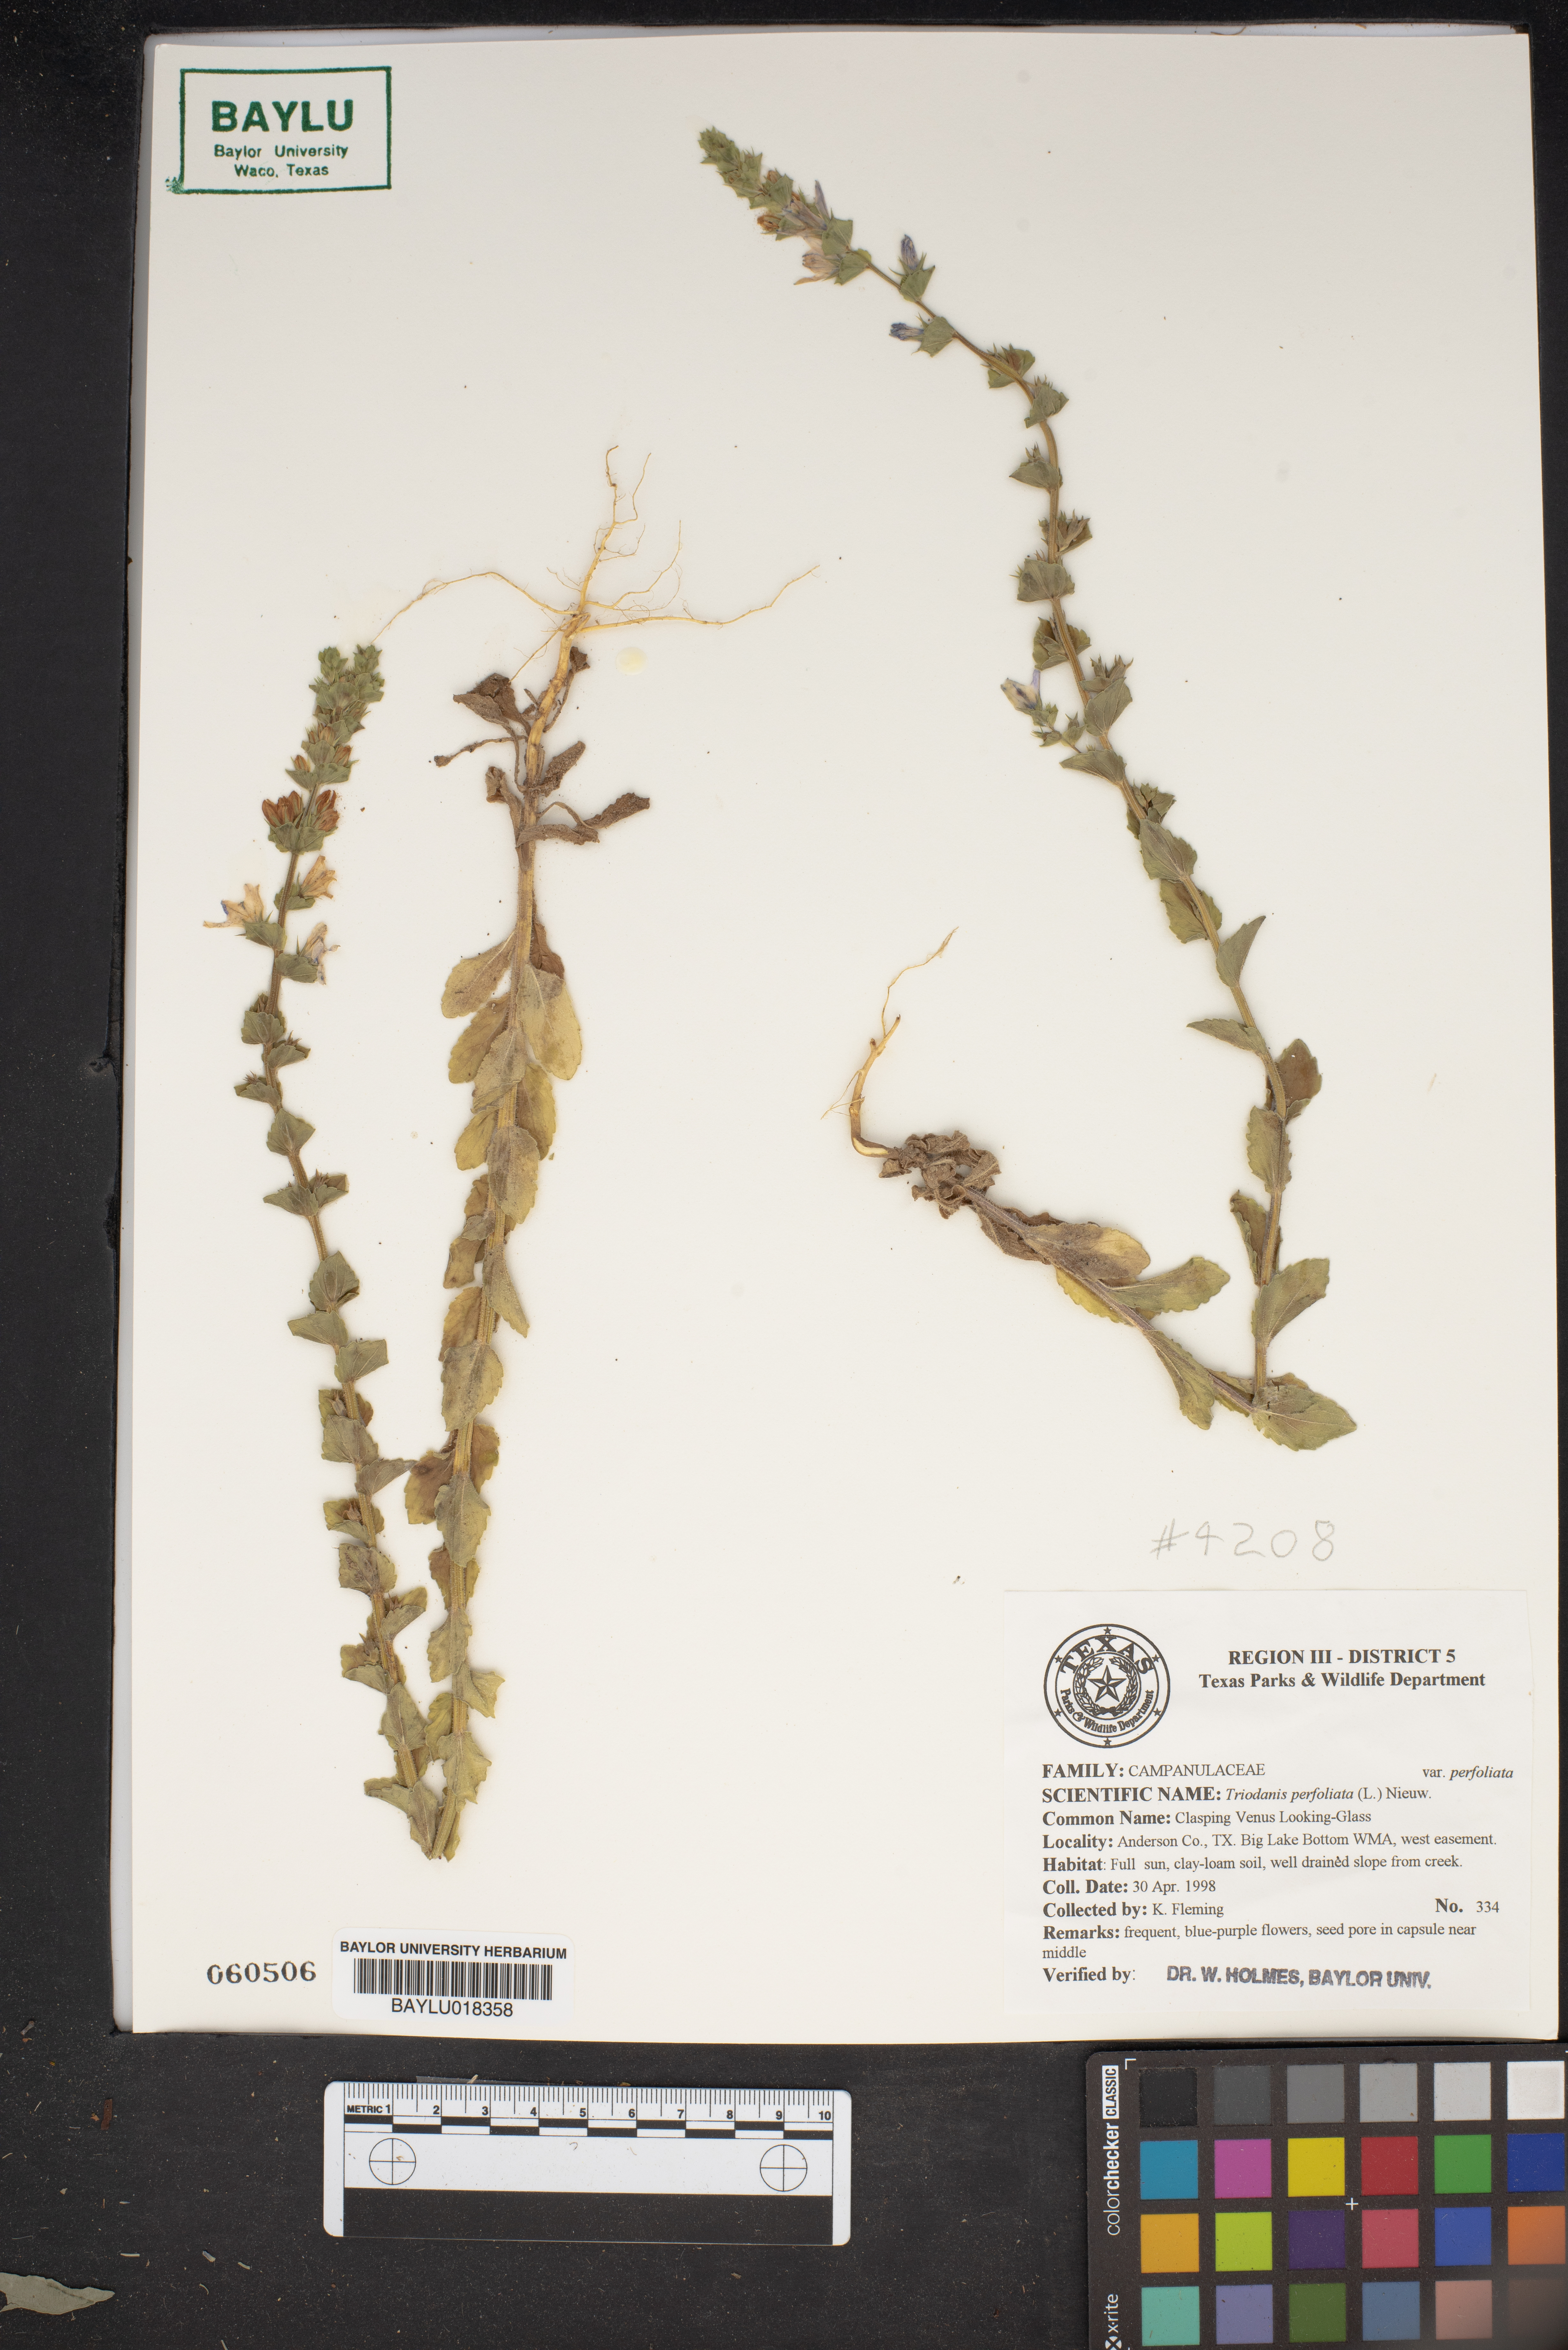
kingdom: Plantae
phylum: Tracheophyta
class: Magnoliopsida
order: Asterales
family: Campanulaceae
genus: Triodanis
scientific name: Triodanis perfoliata
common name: Clasping venus' looking-glass
